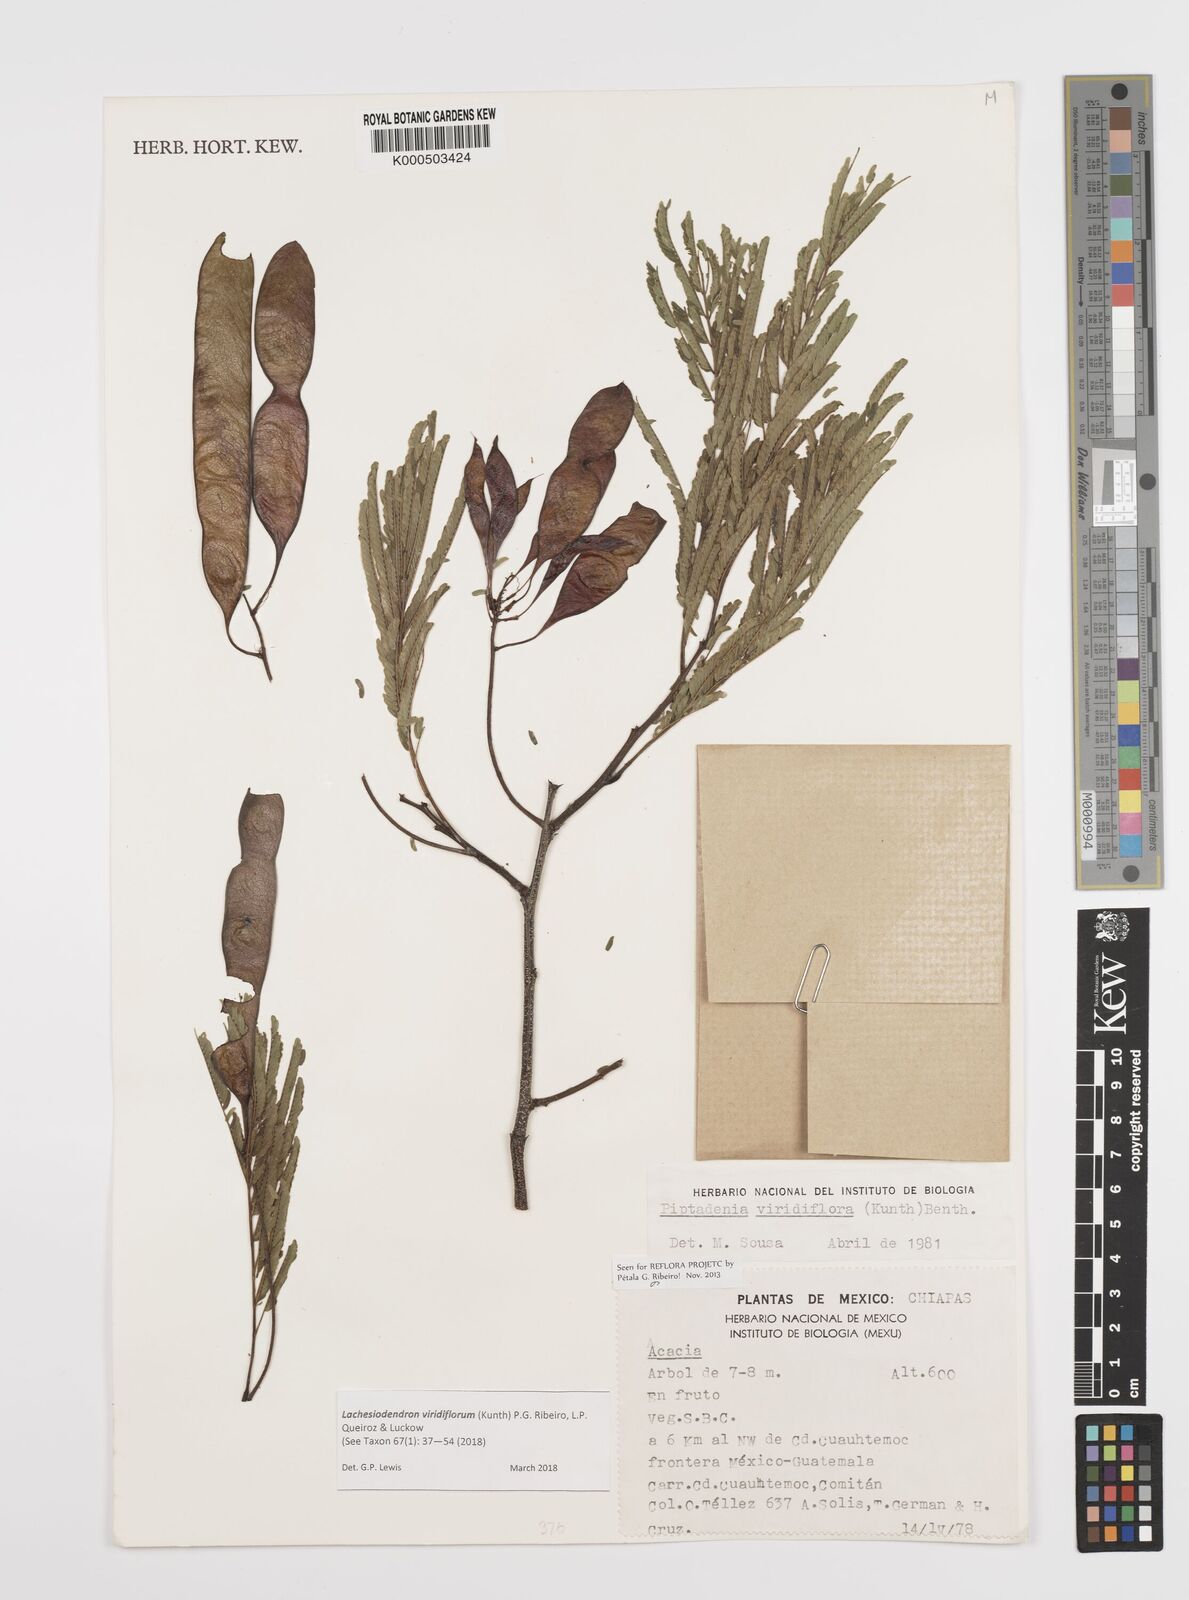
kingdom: Plantae
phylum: Tracheophyta
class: Magnoliopsida
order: Fabales
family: Fabaceae
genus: Lachesiodendron
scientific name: Lachesiodendron viridiflorum
